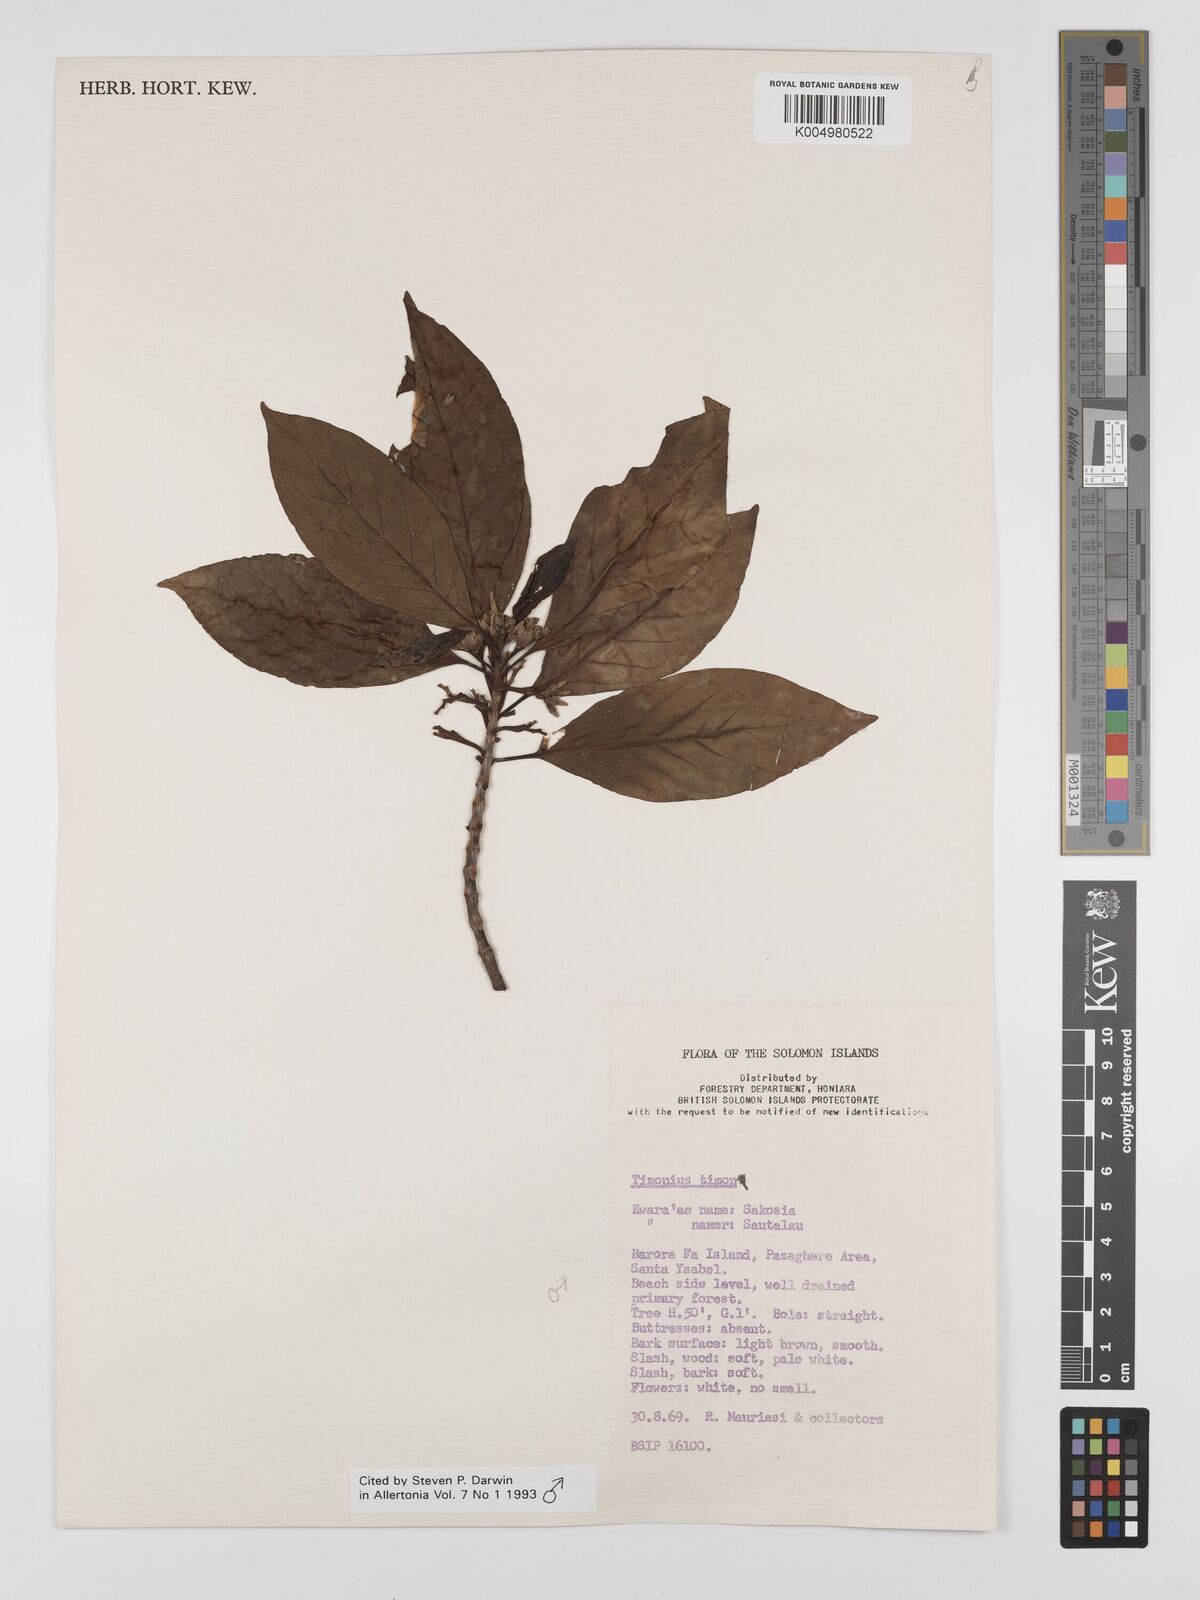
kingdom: Plantae
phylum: Tracheophyta
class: Magnoliopsida
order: Gentianales
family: Rubiaceae
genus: Timonius
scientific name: Timonius timon
